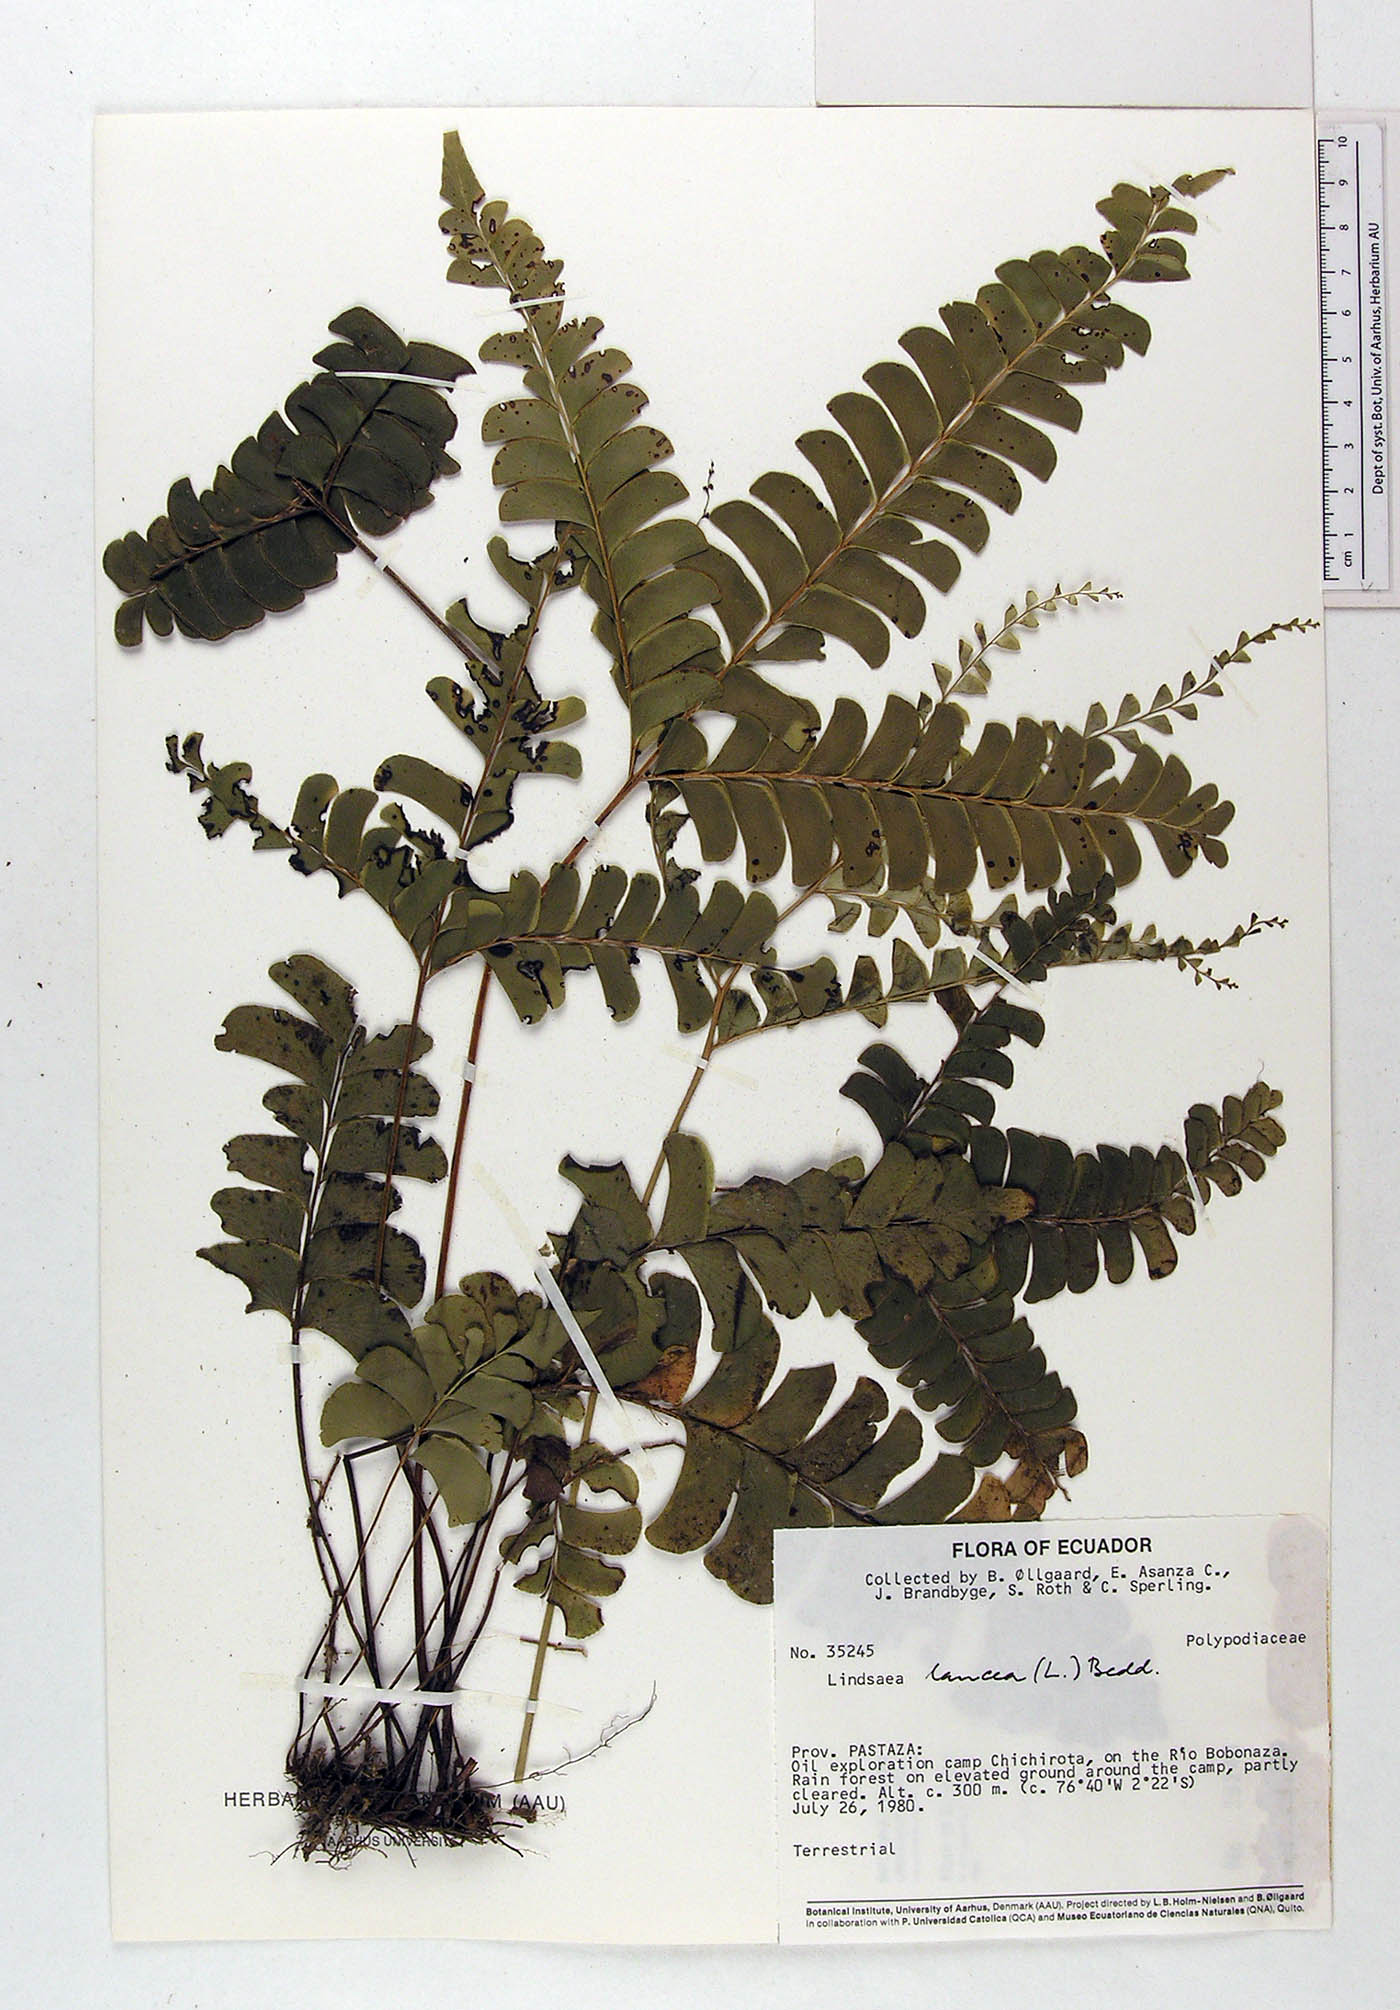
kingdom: Plantae
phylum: Tracheophyta
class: Polypodiopsida
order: Polypodiales
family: Dennstaedtiaceae
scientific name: Dennstaedtiaceae
